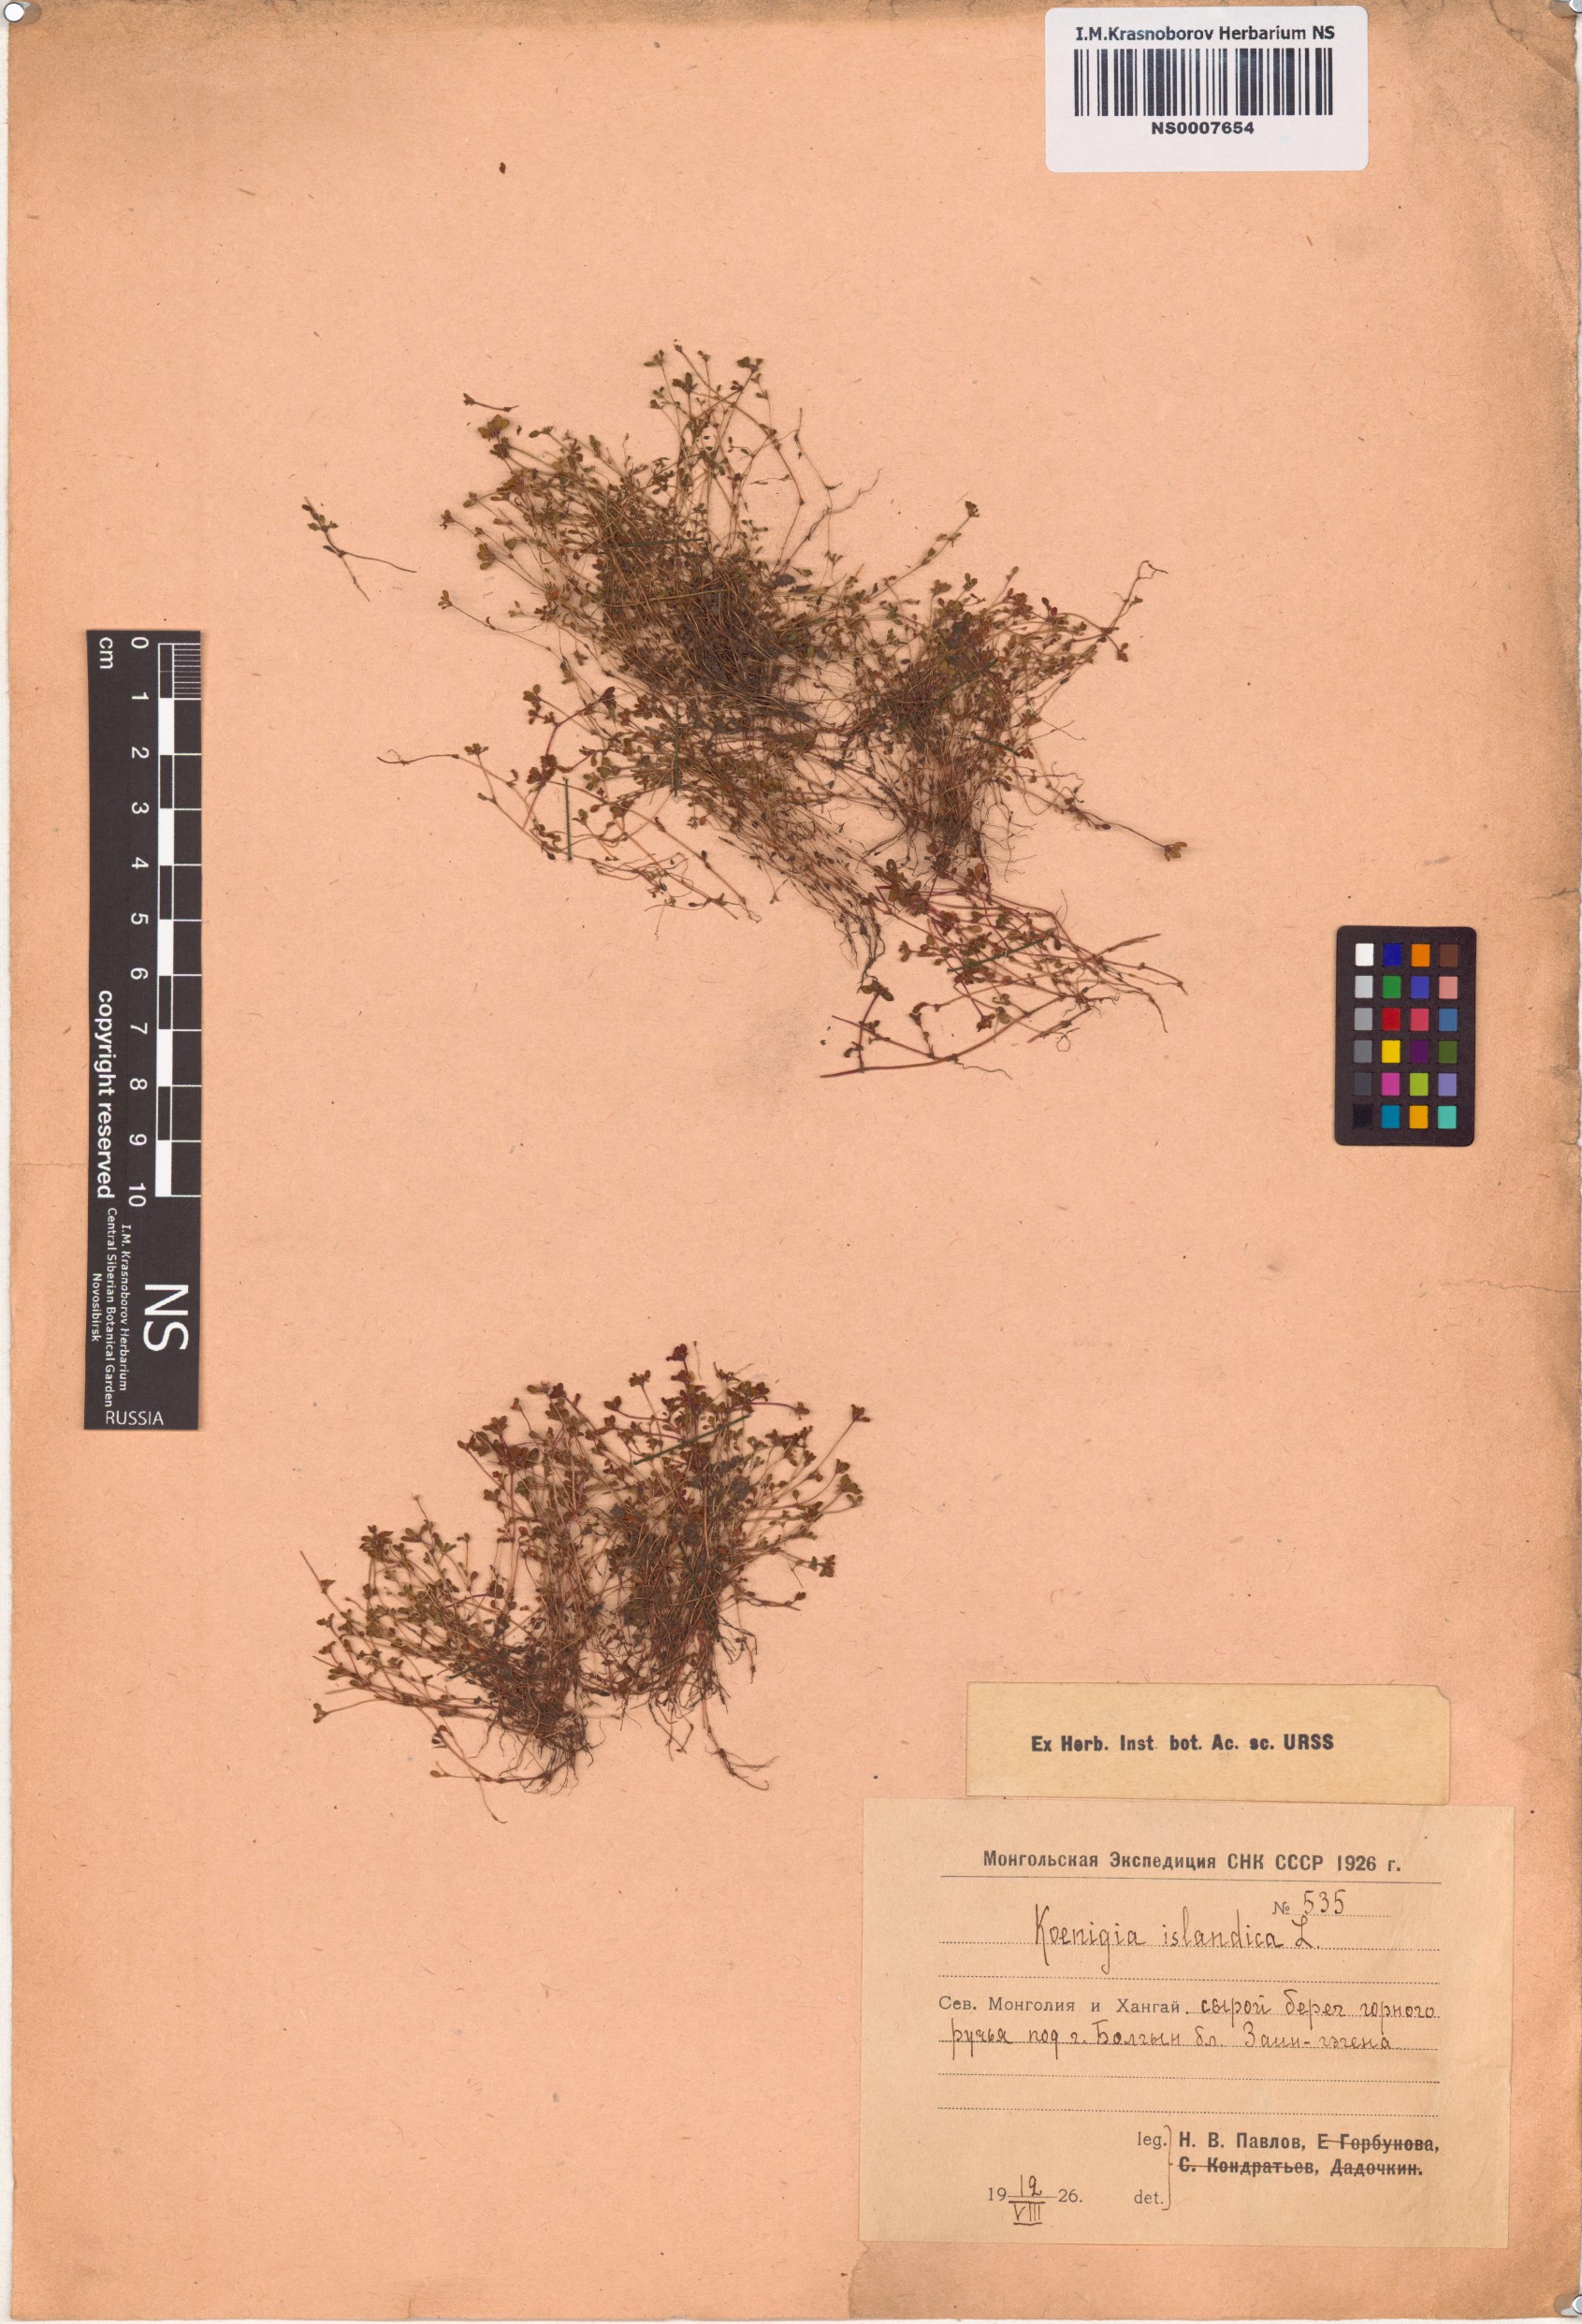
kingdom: Plantae
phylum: Tracheophyta
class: Magnoliopsida
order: Caryophyllales
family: Polygonaceae
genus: Koenigia
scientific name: Koenigia islandica
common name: Iceland-purslane
